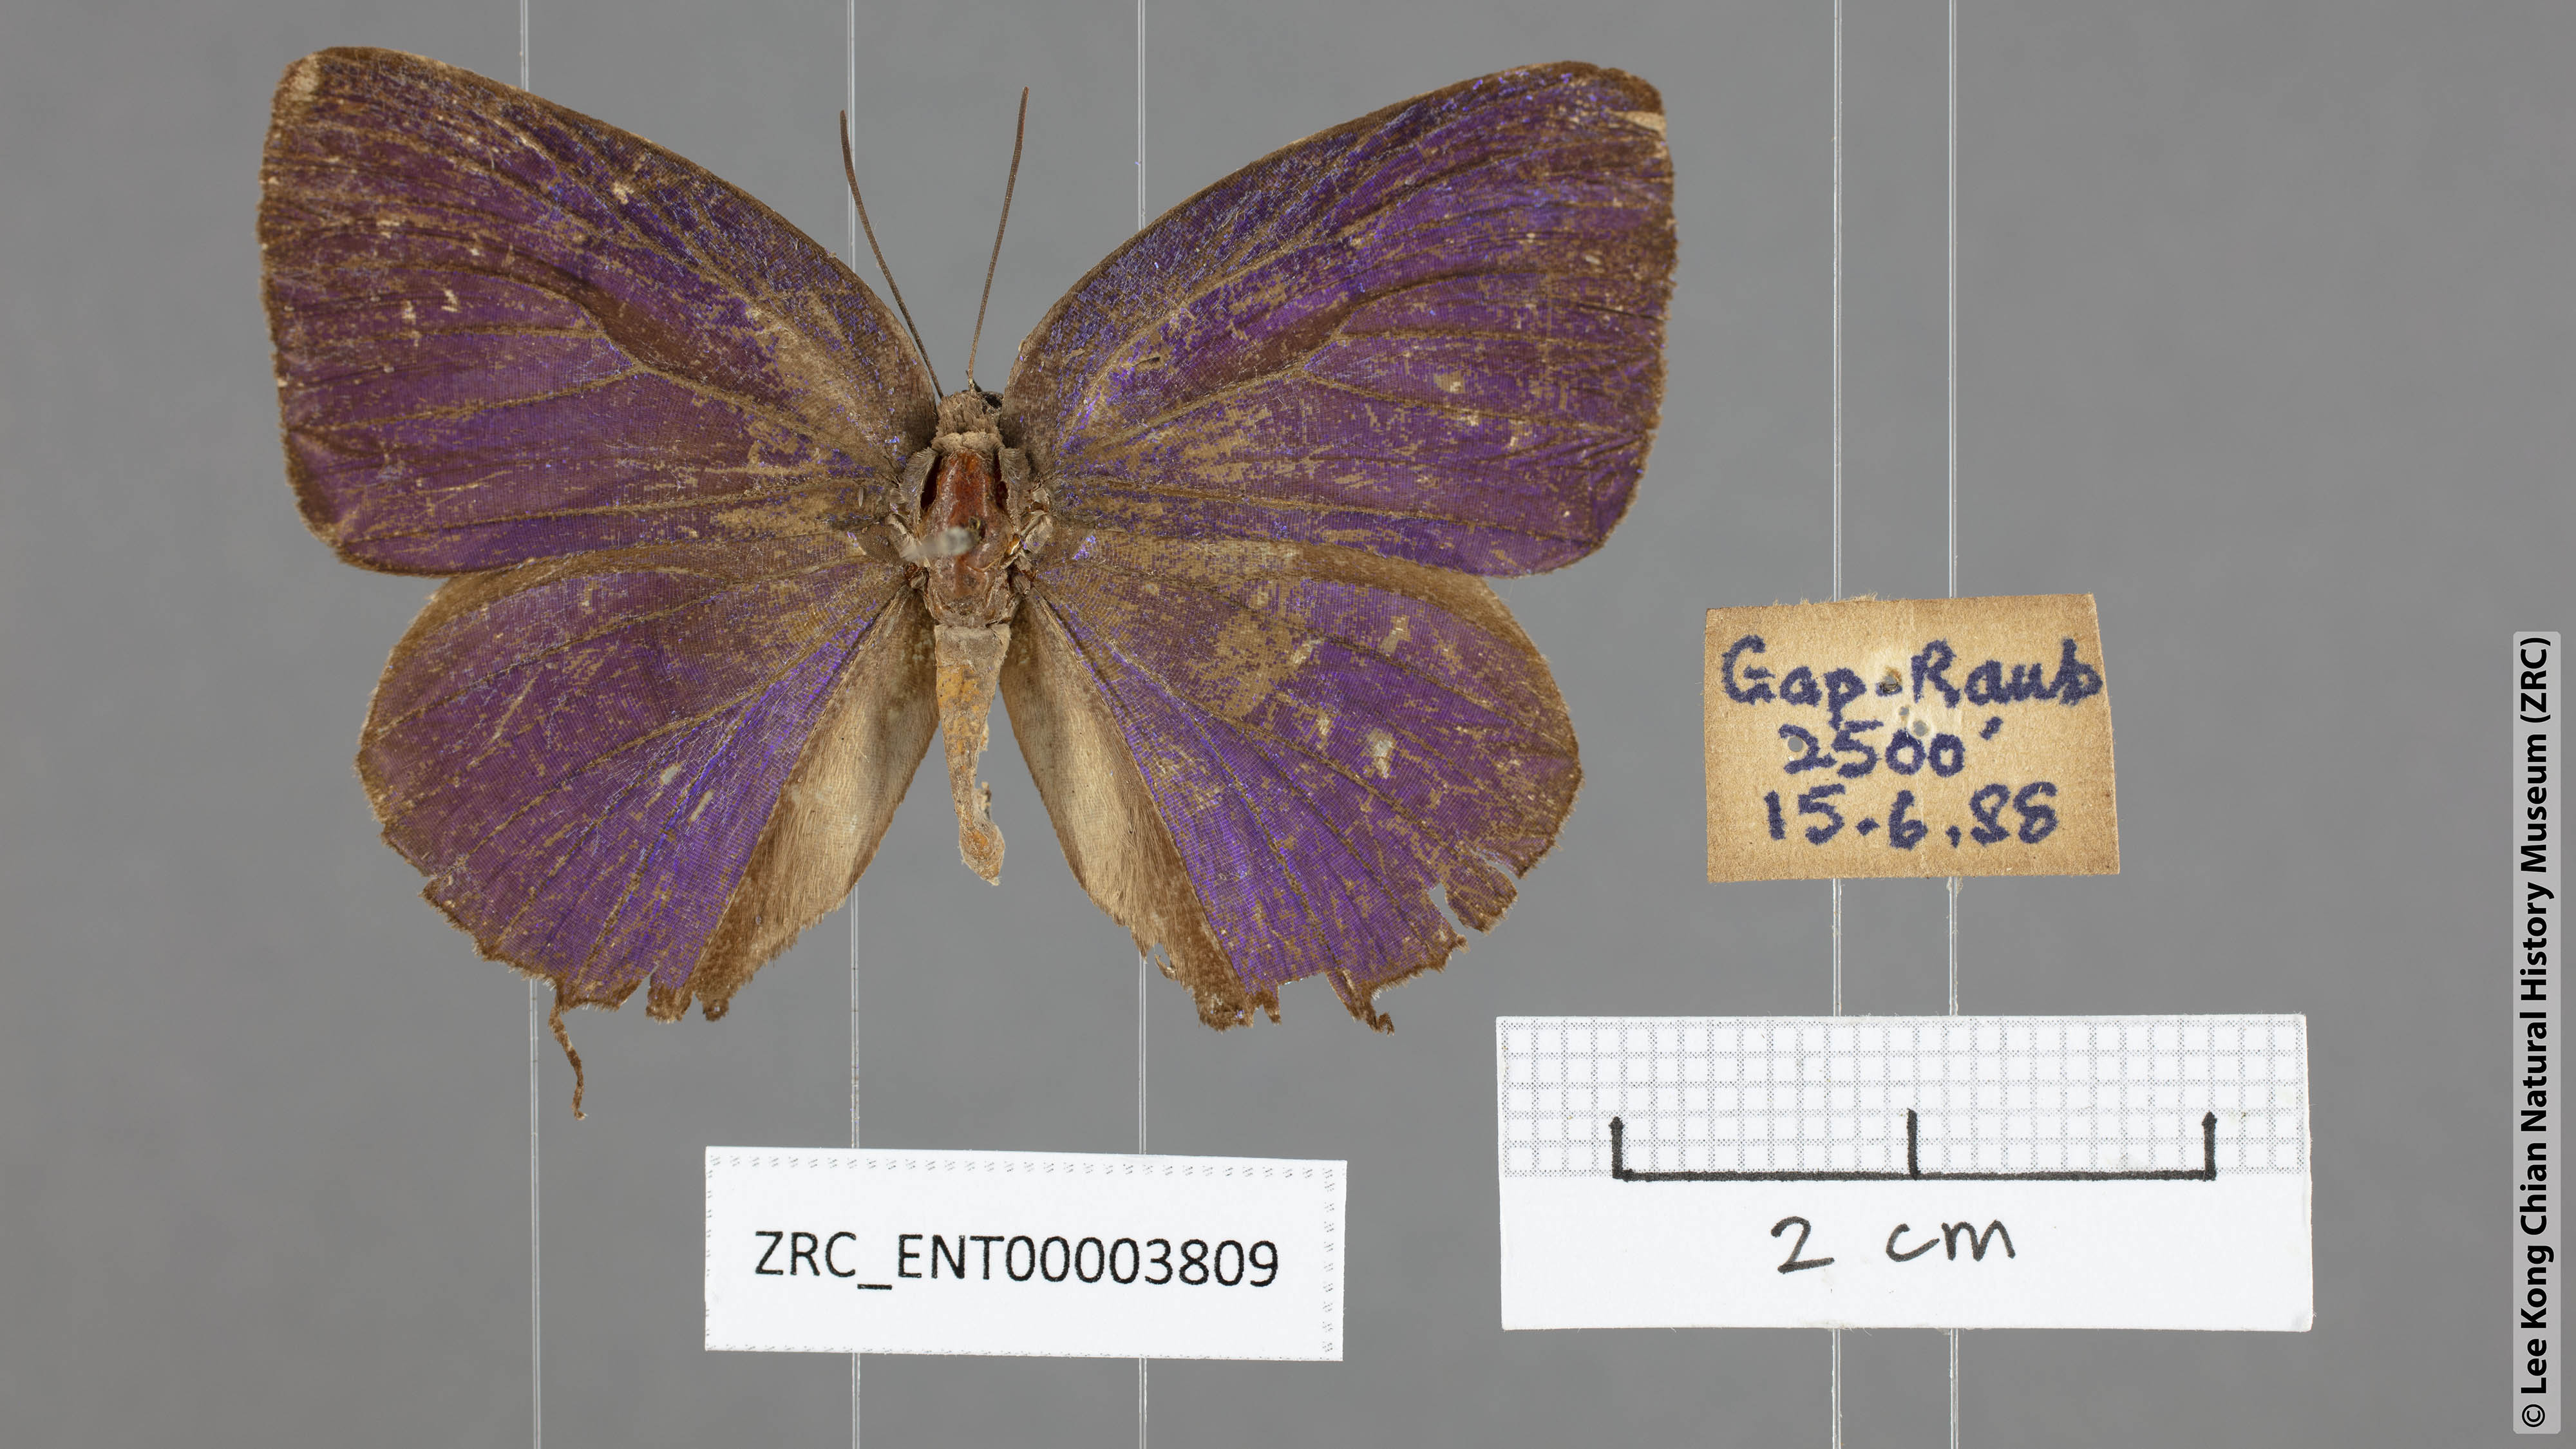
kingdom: Animalia
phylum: Arthropoda
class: Insecta
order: Lepidoptera
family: Lycaenidae
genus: Arhopala
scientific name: Arhopala aedias
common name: Large metallic oakblue
